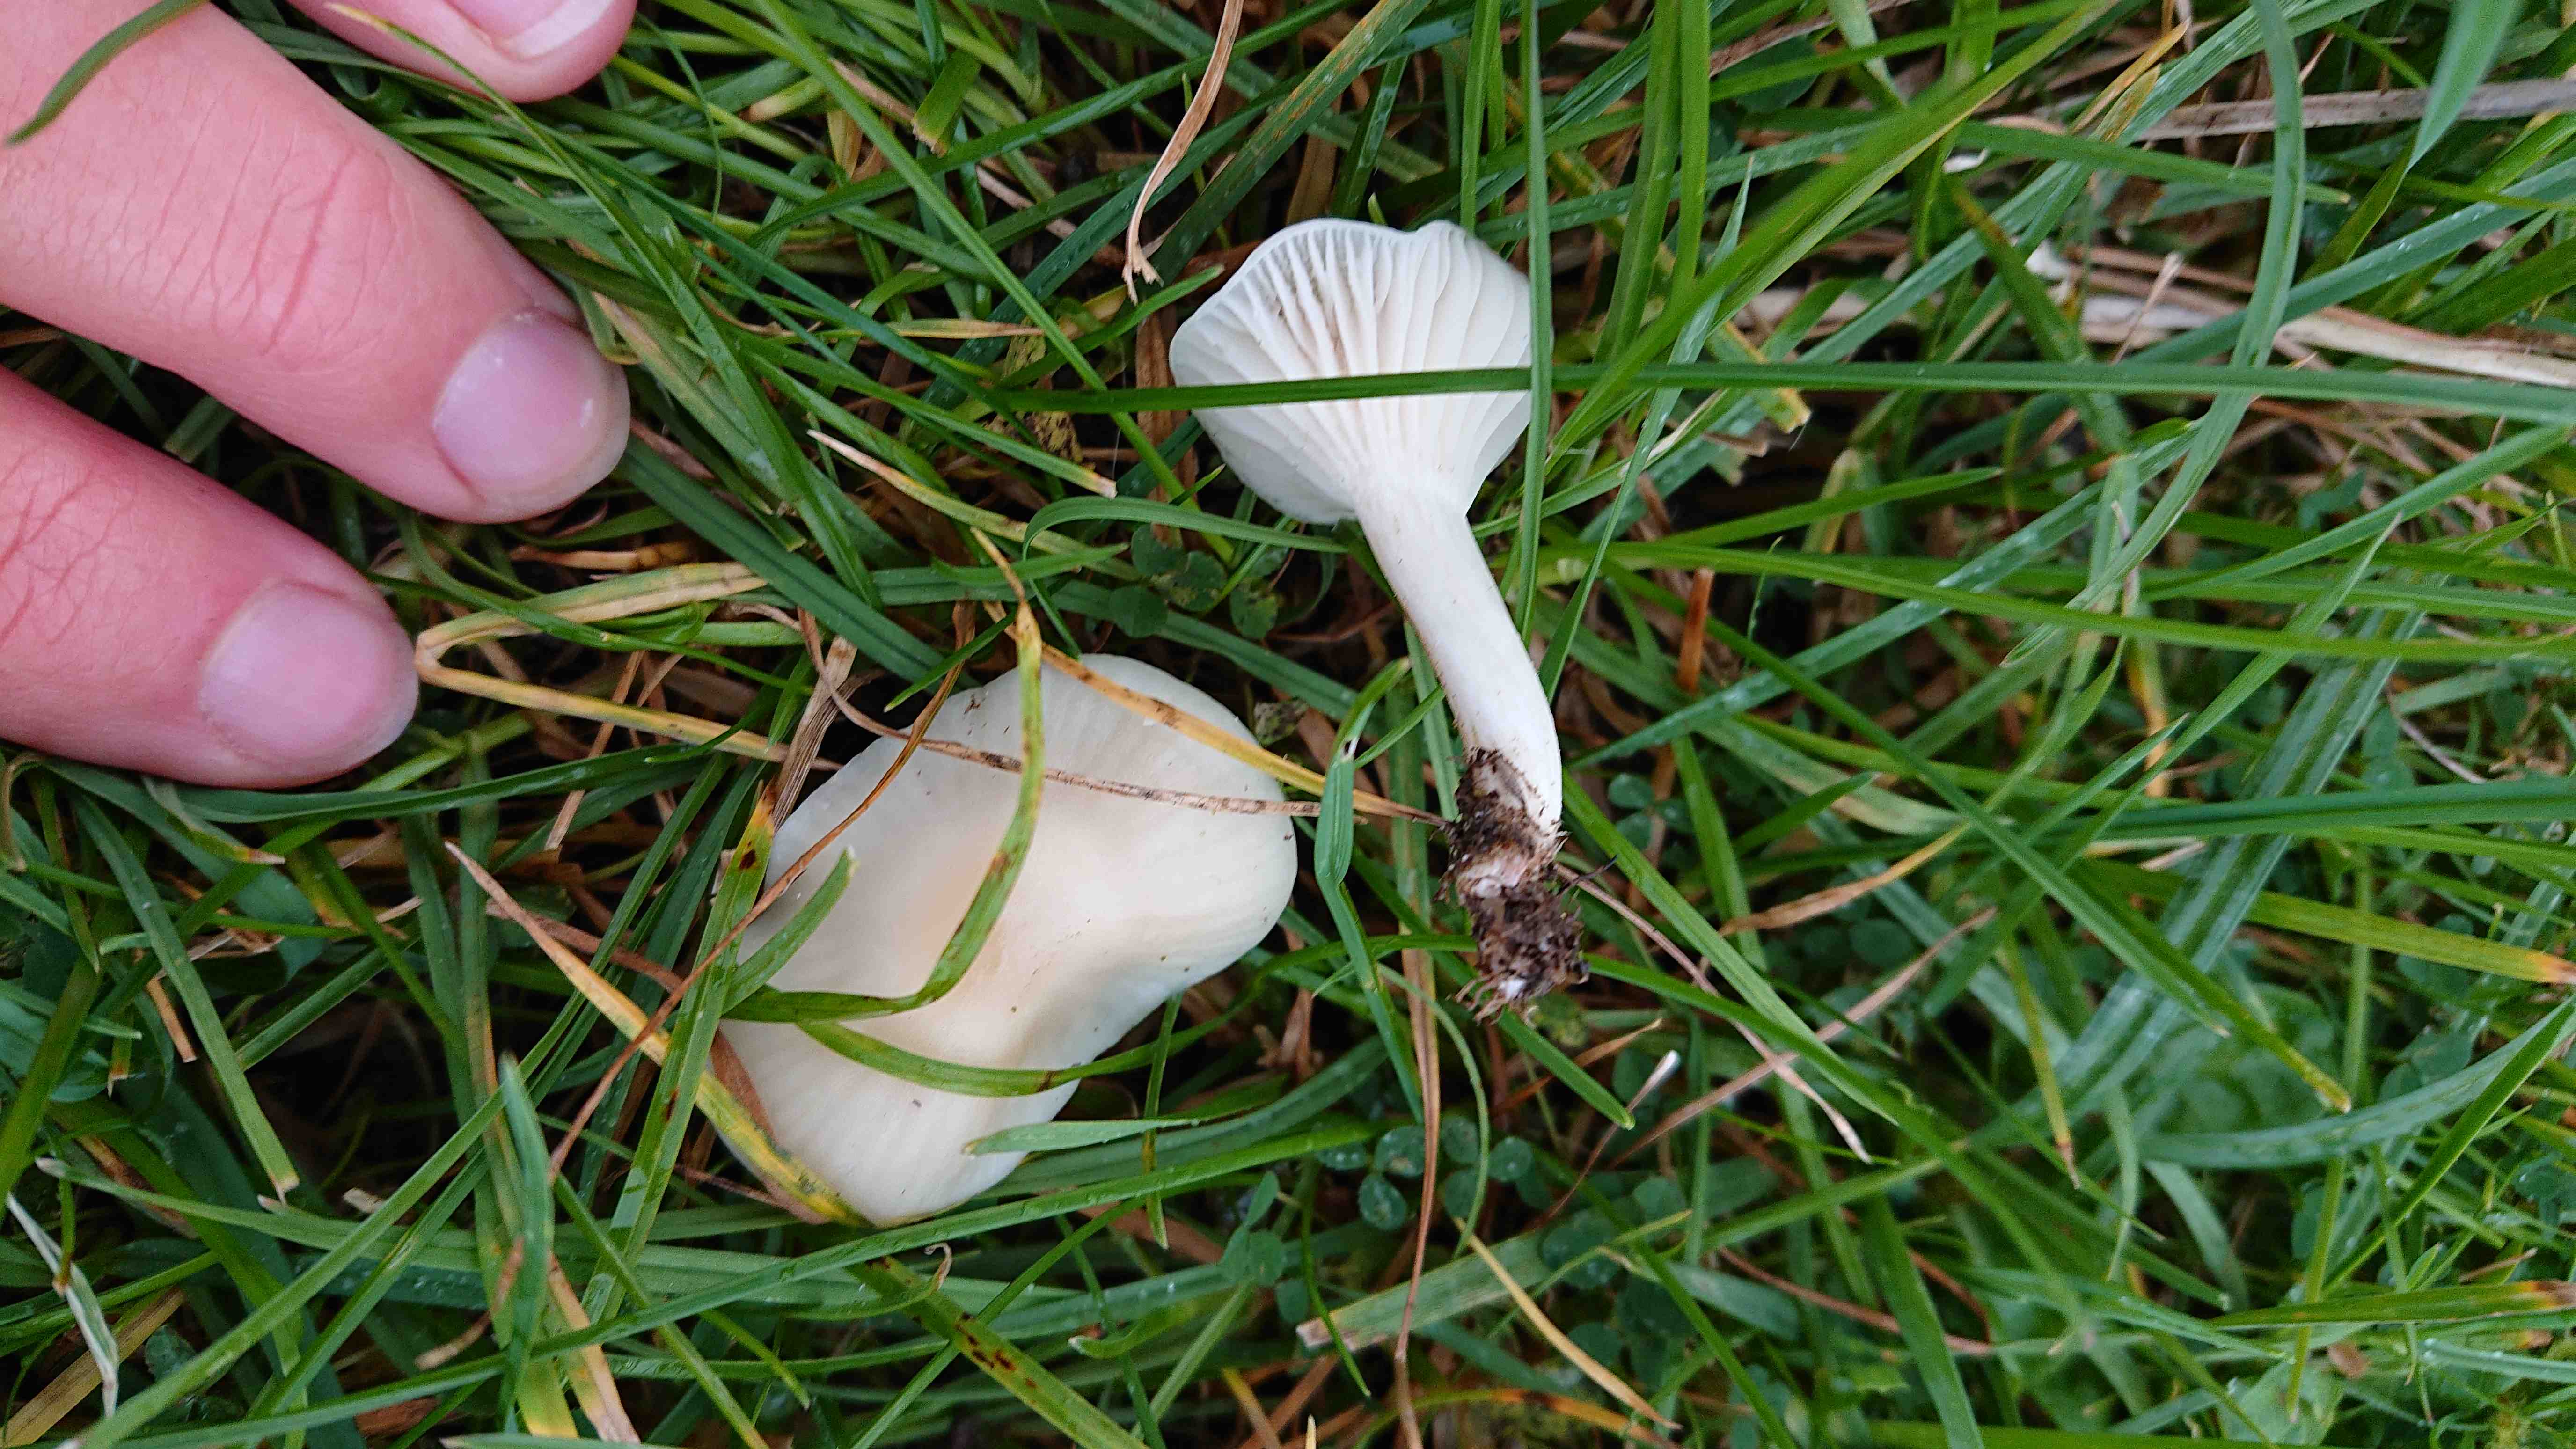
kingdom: Fungi
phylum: Basidiomycota
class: Agaricomycetes
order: Agaricales
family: Hygrophoraceae
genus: Cuphophyllus
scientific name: Cuphophyllus virgineus
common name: snehvid vokshat
